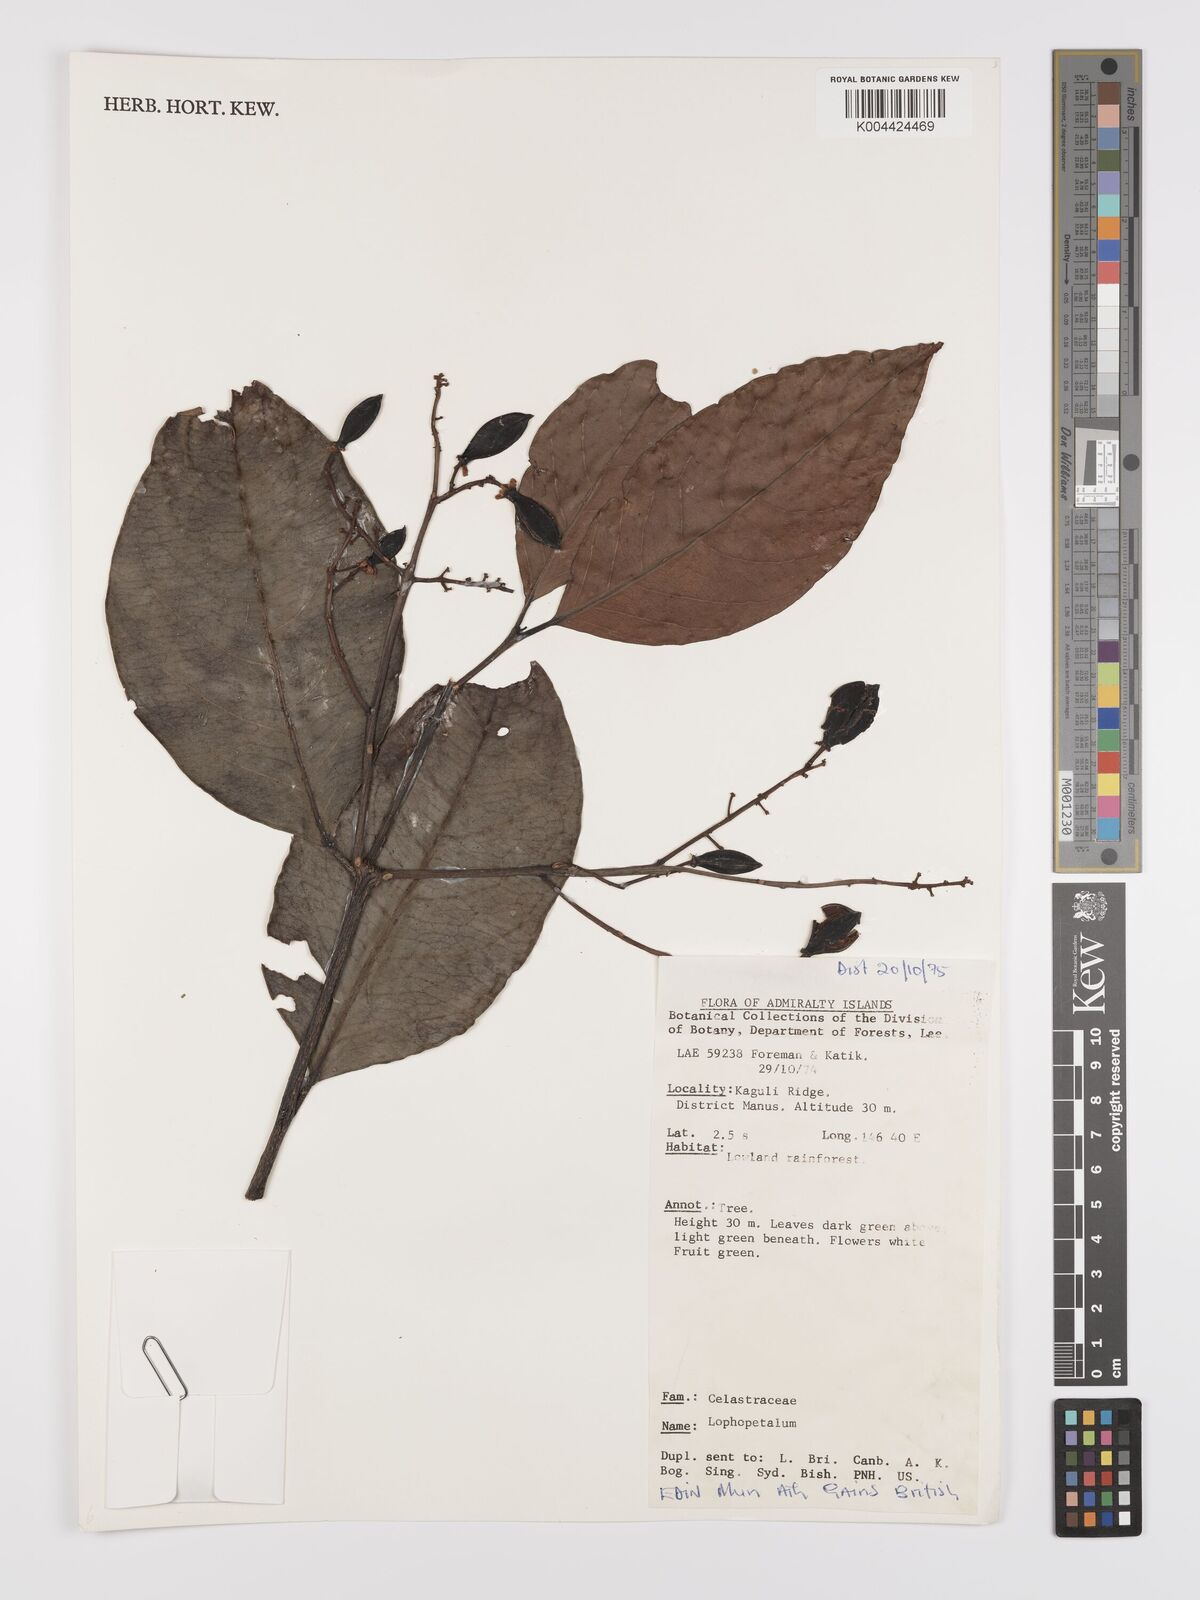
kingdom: Plantae
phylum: Tracheophyta
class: Magnoliopsida
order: Celastrales
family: Celastraceae
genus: Lophopetalum
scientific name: Lophopetalum
